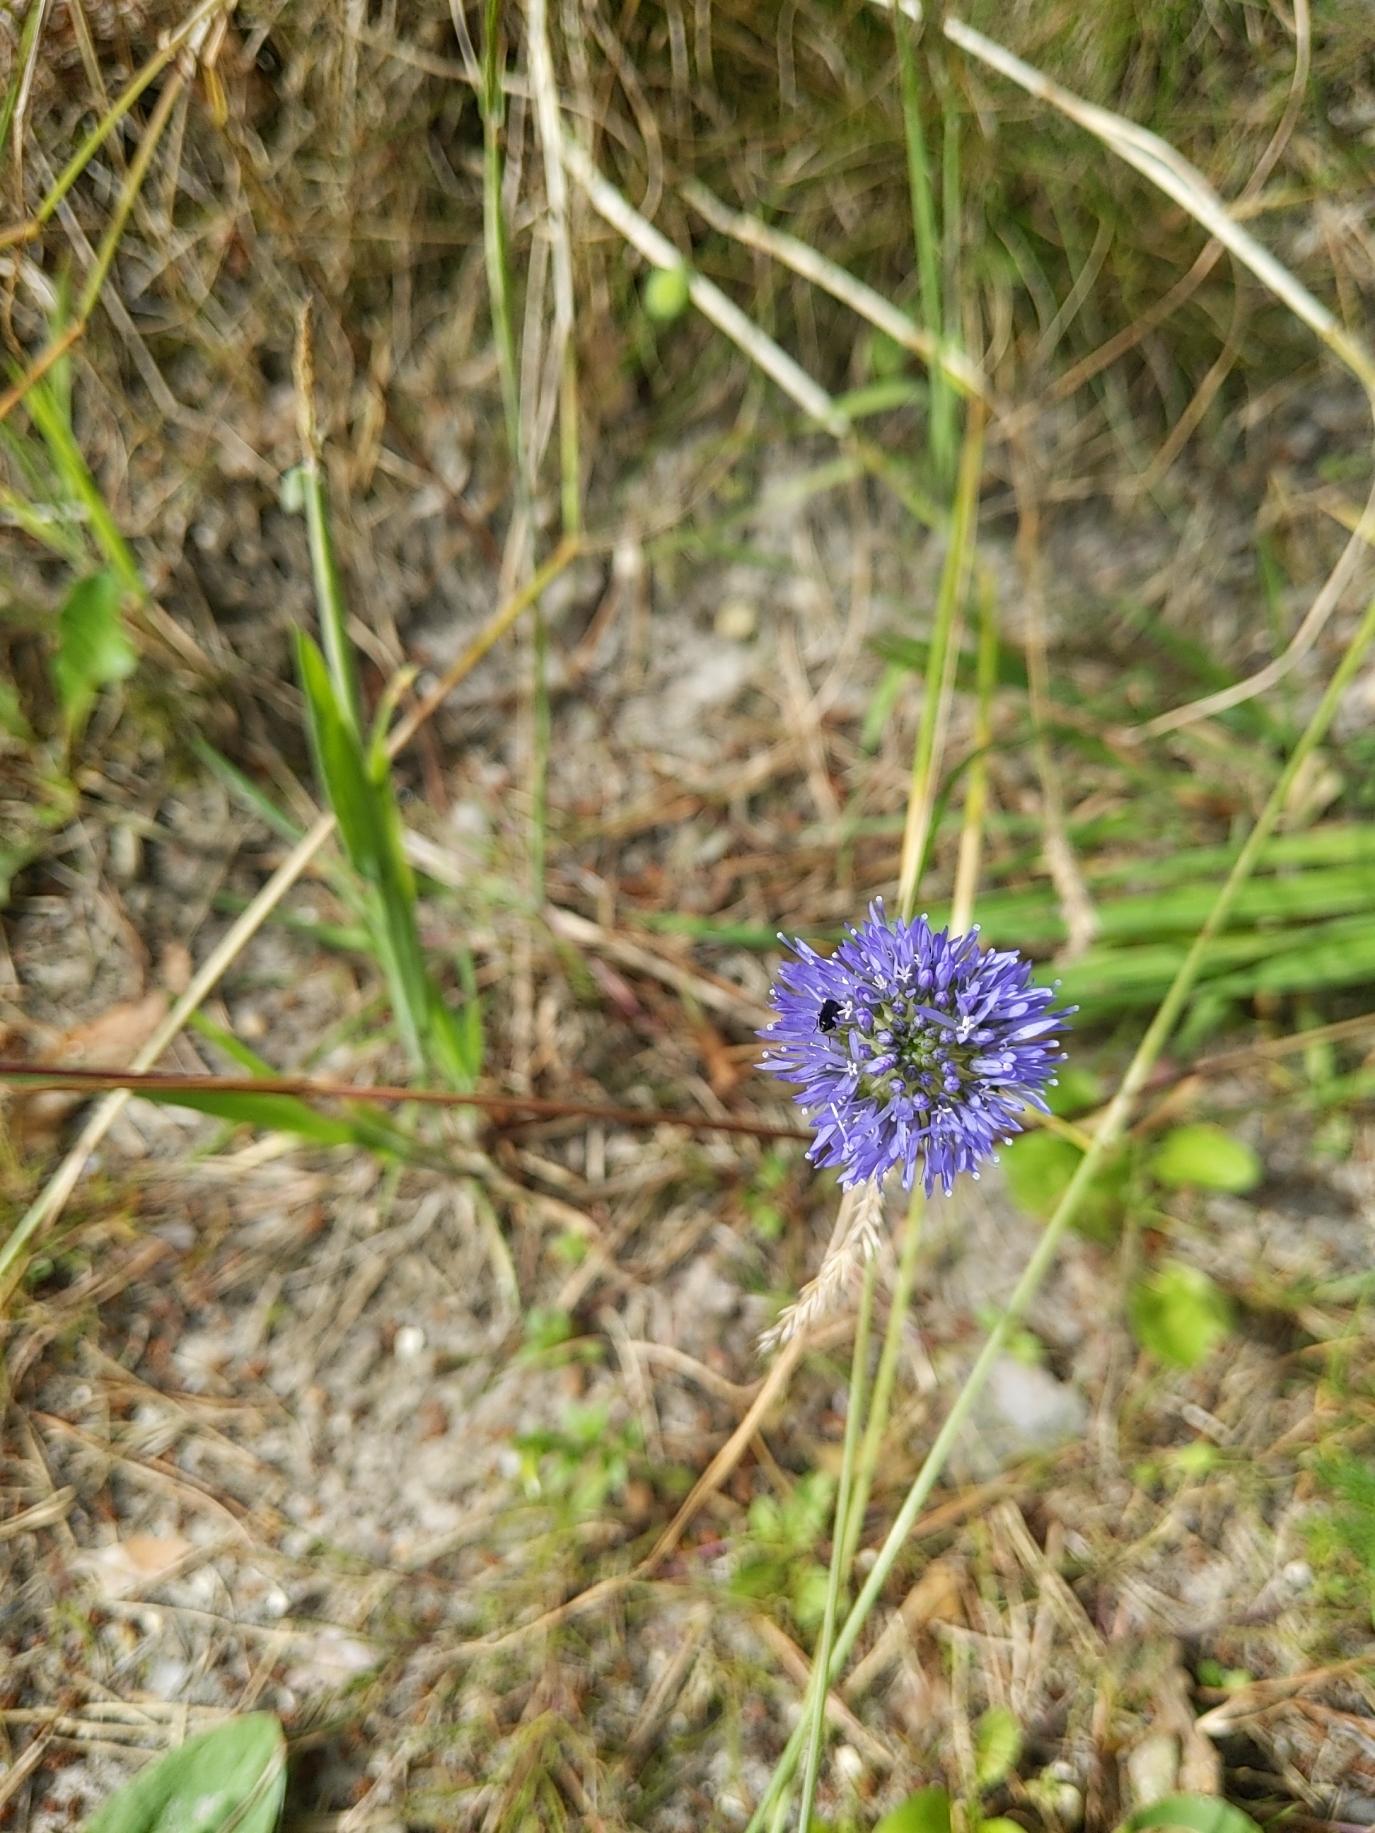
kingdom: Plantae
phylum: Tracheophyta
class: Magnoliopsida
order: Asterales
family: Campanulaceae
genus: Jasione
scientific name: Jasione montana
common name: Blåmunke
